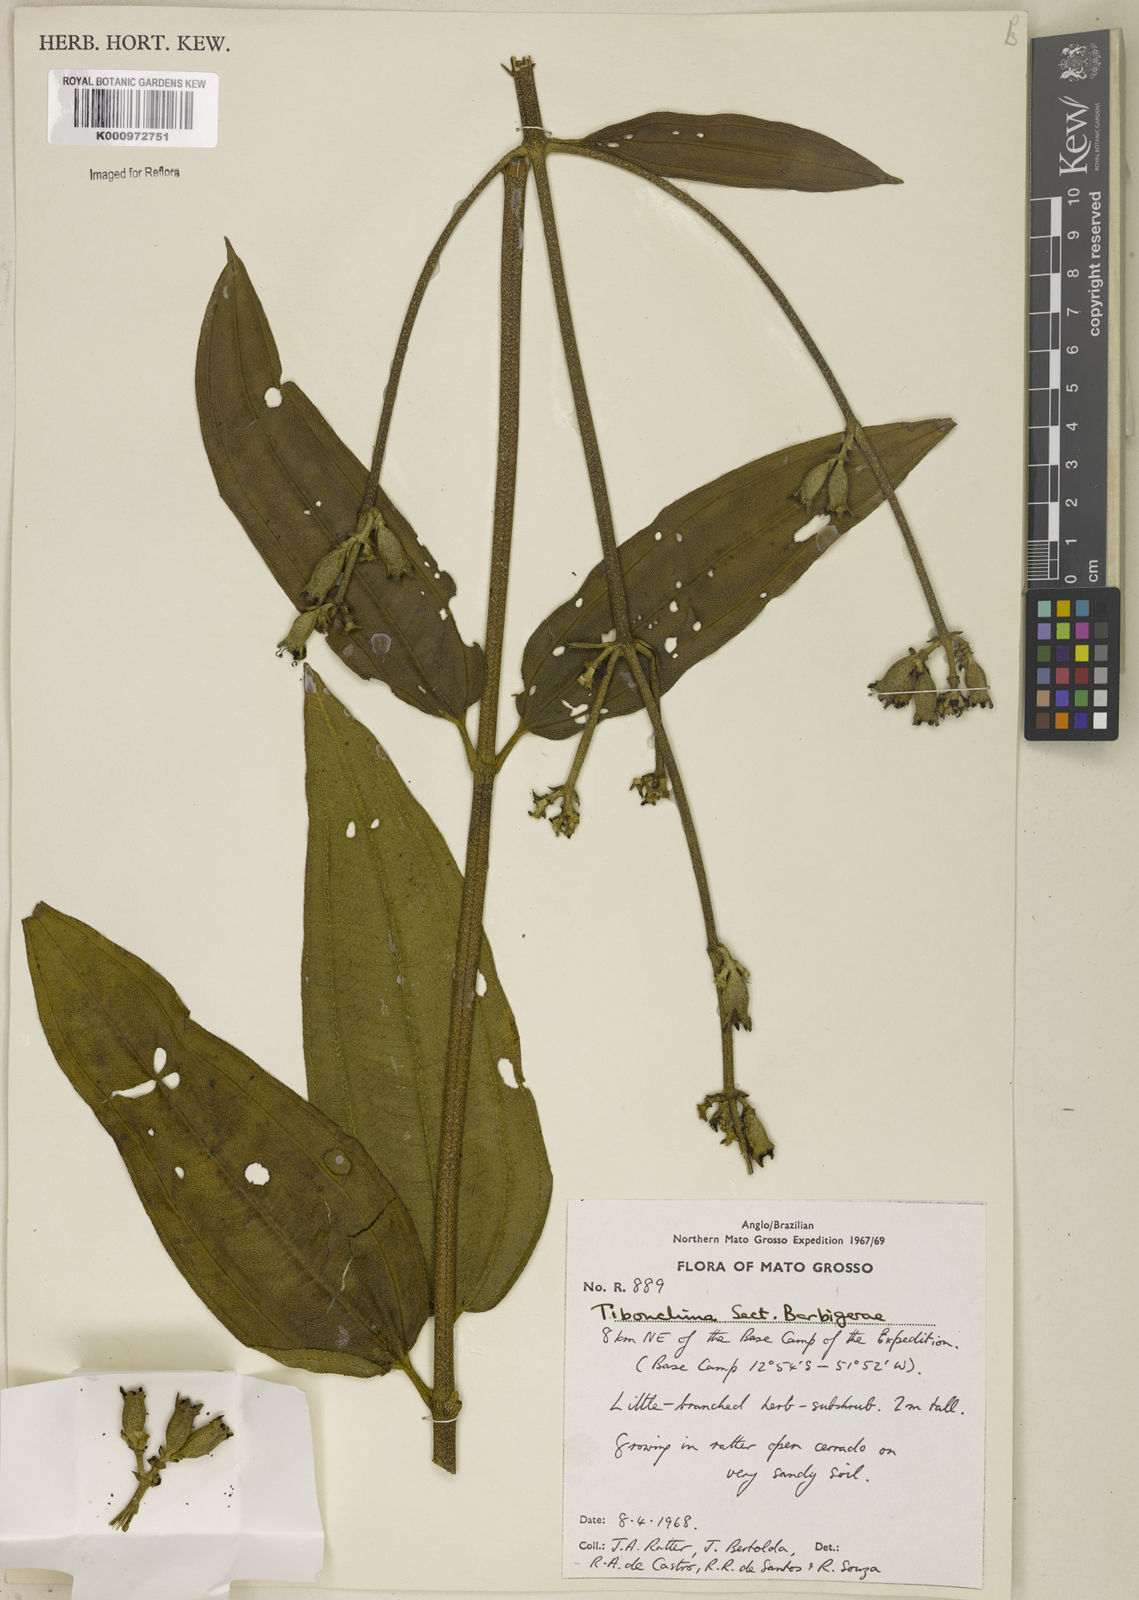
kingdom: Plantae
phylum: Tracheophyta
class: Magnoliopsida
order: Myrtales
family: Melastomataceae
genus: Pleroma
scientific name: Pleroma aegopogon
